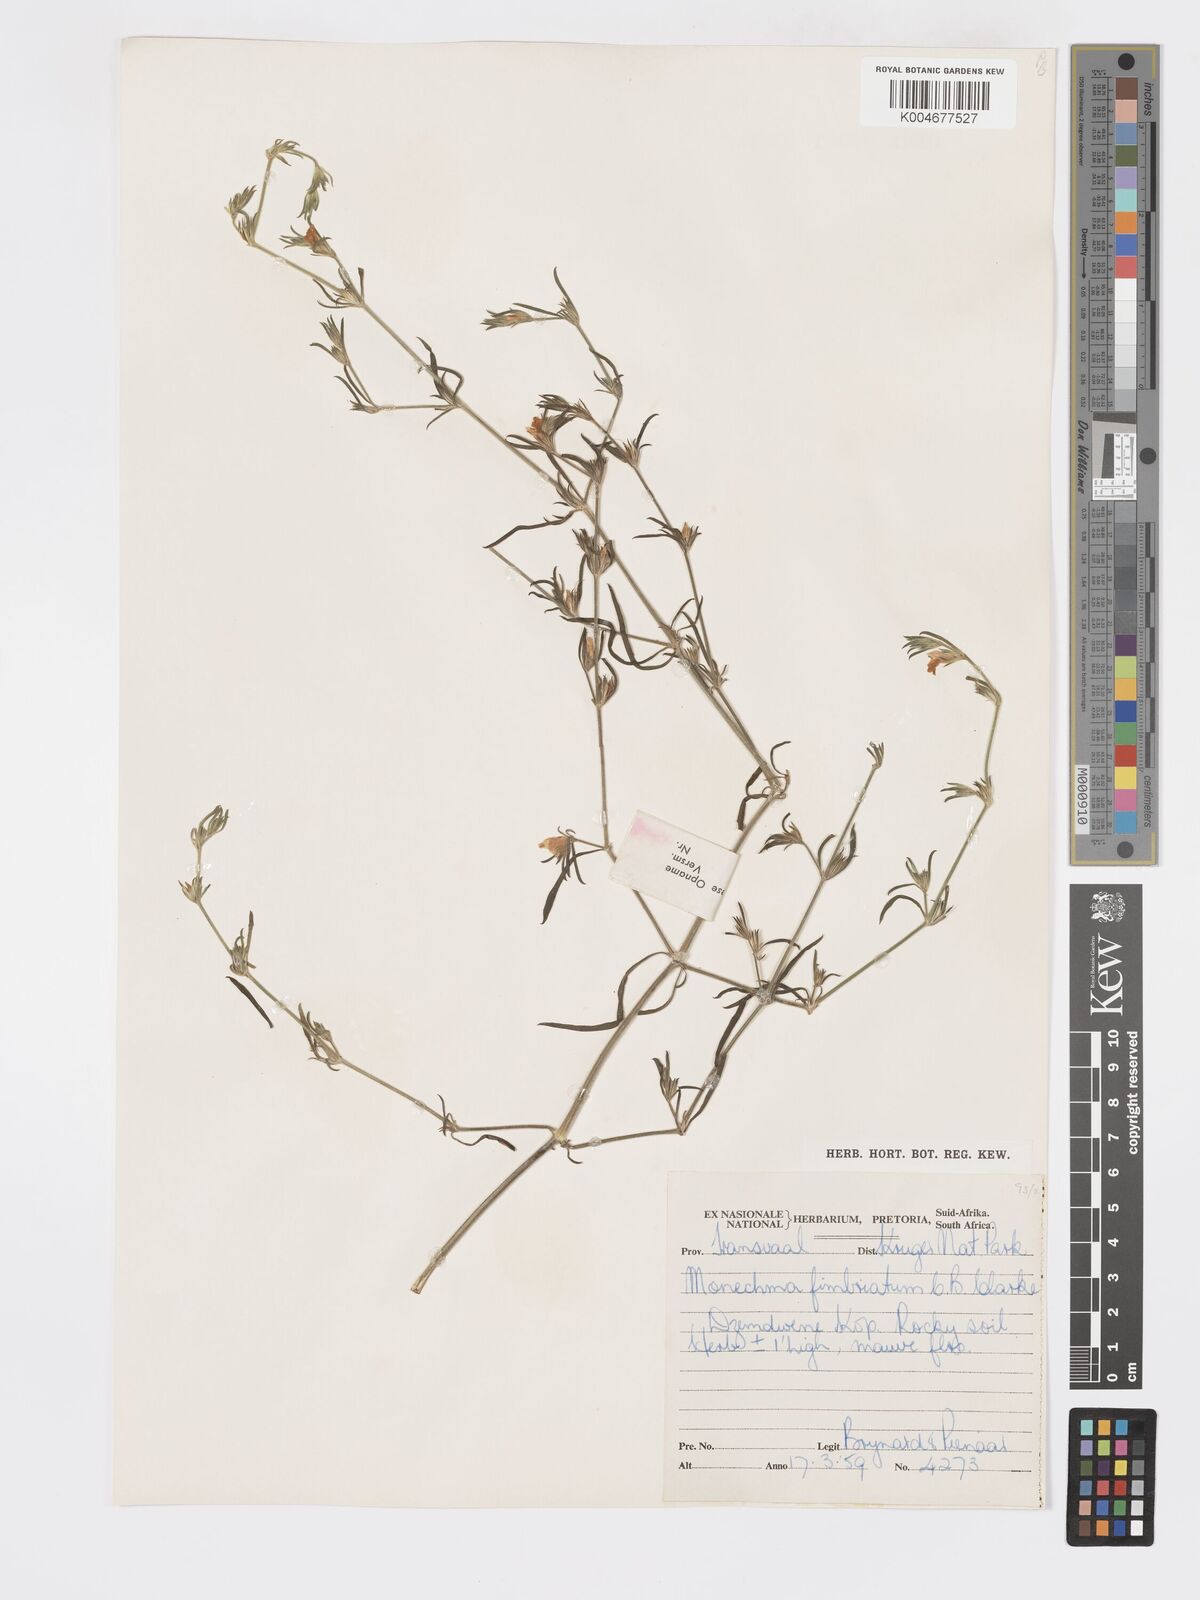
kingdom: Plantae
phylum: Tracheophyta
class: Magnoliopsida
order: Lamiales
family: Acanthaceae
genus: Pogonospermum
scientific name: Pogonospermum
